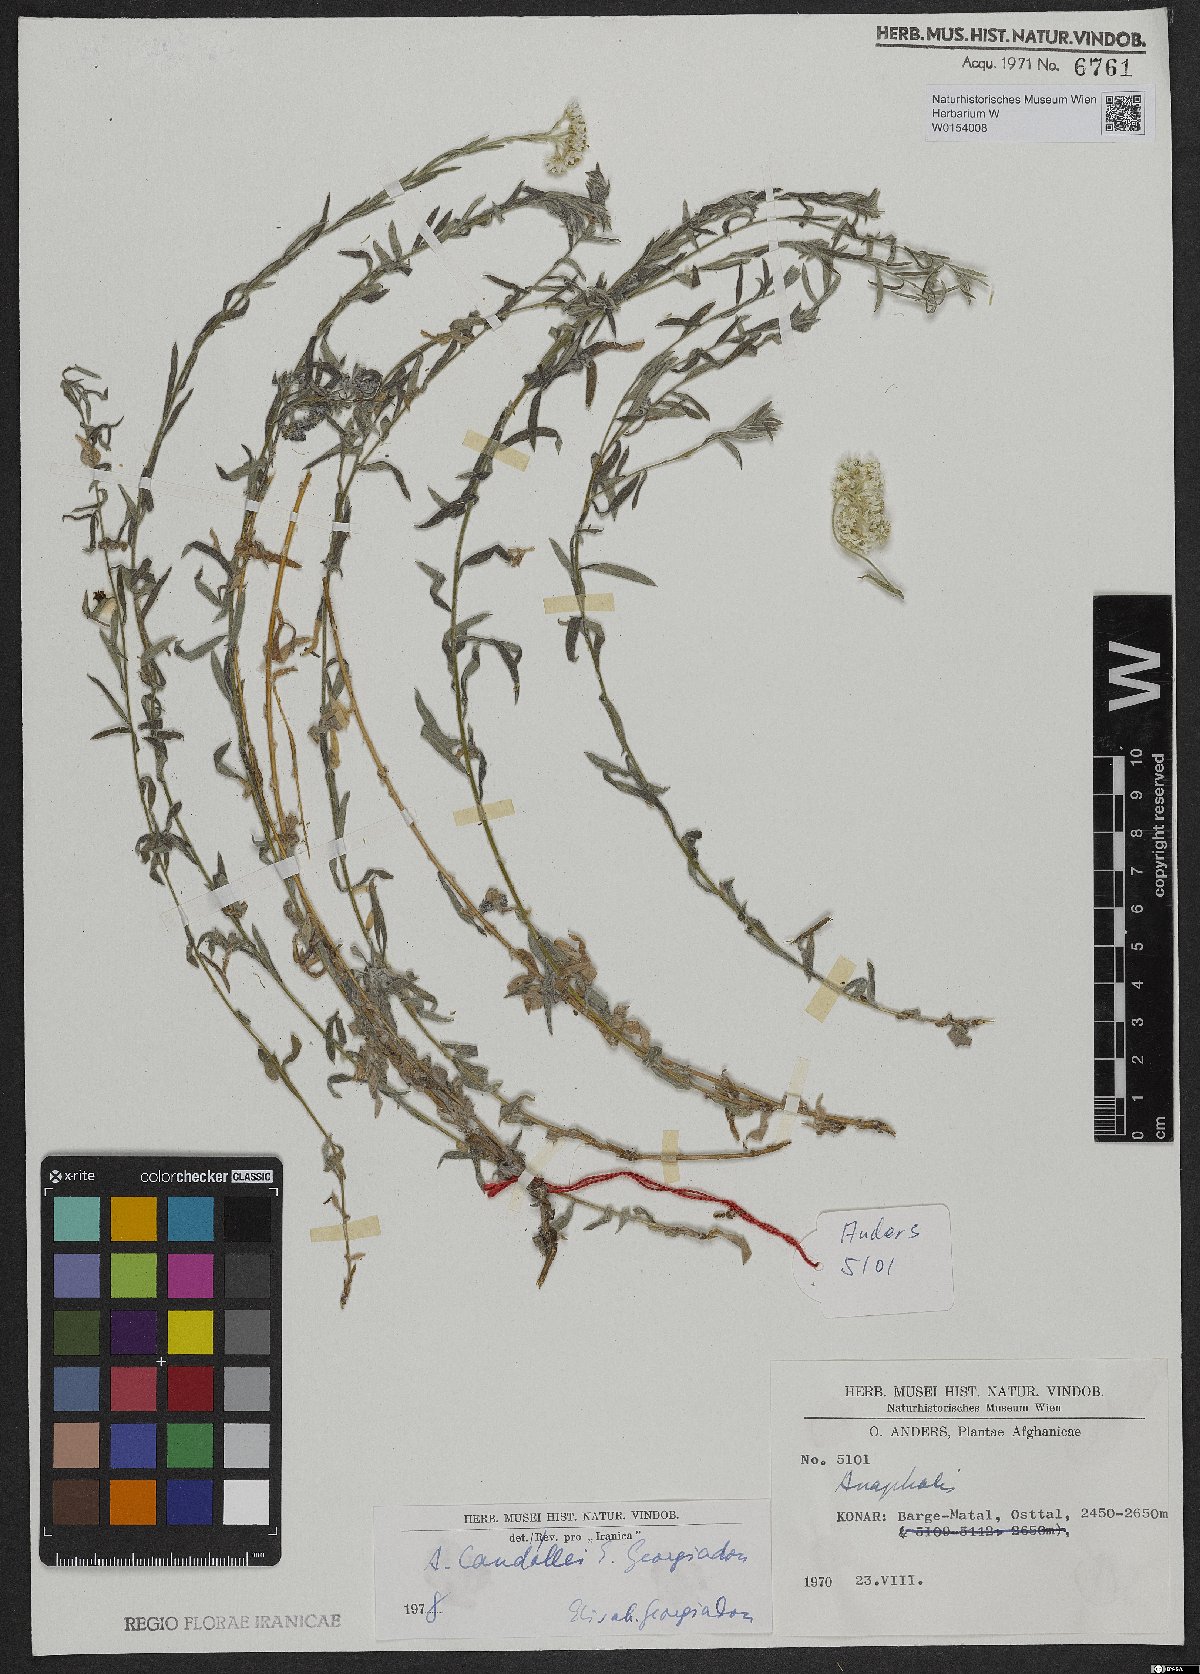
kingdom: Plantae
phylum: Tracheophyta
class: Magnoliopsida
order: Asterales
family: Asteraceae
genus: Anaphalis
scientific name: Anaphalis candollei
